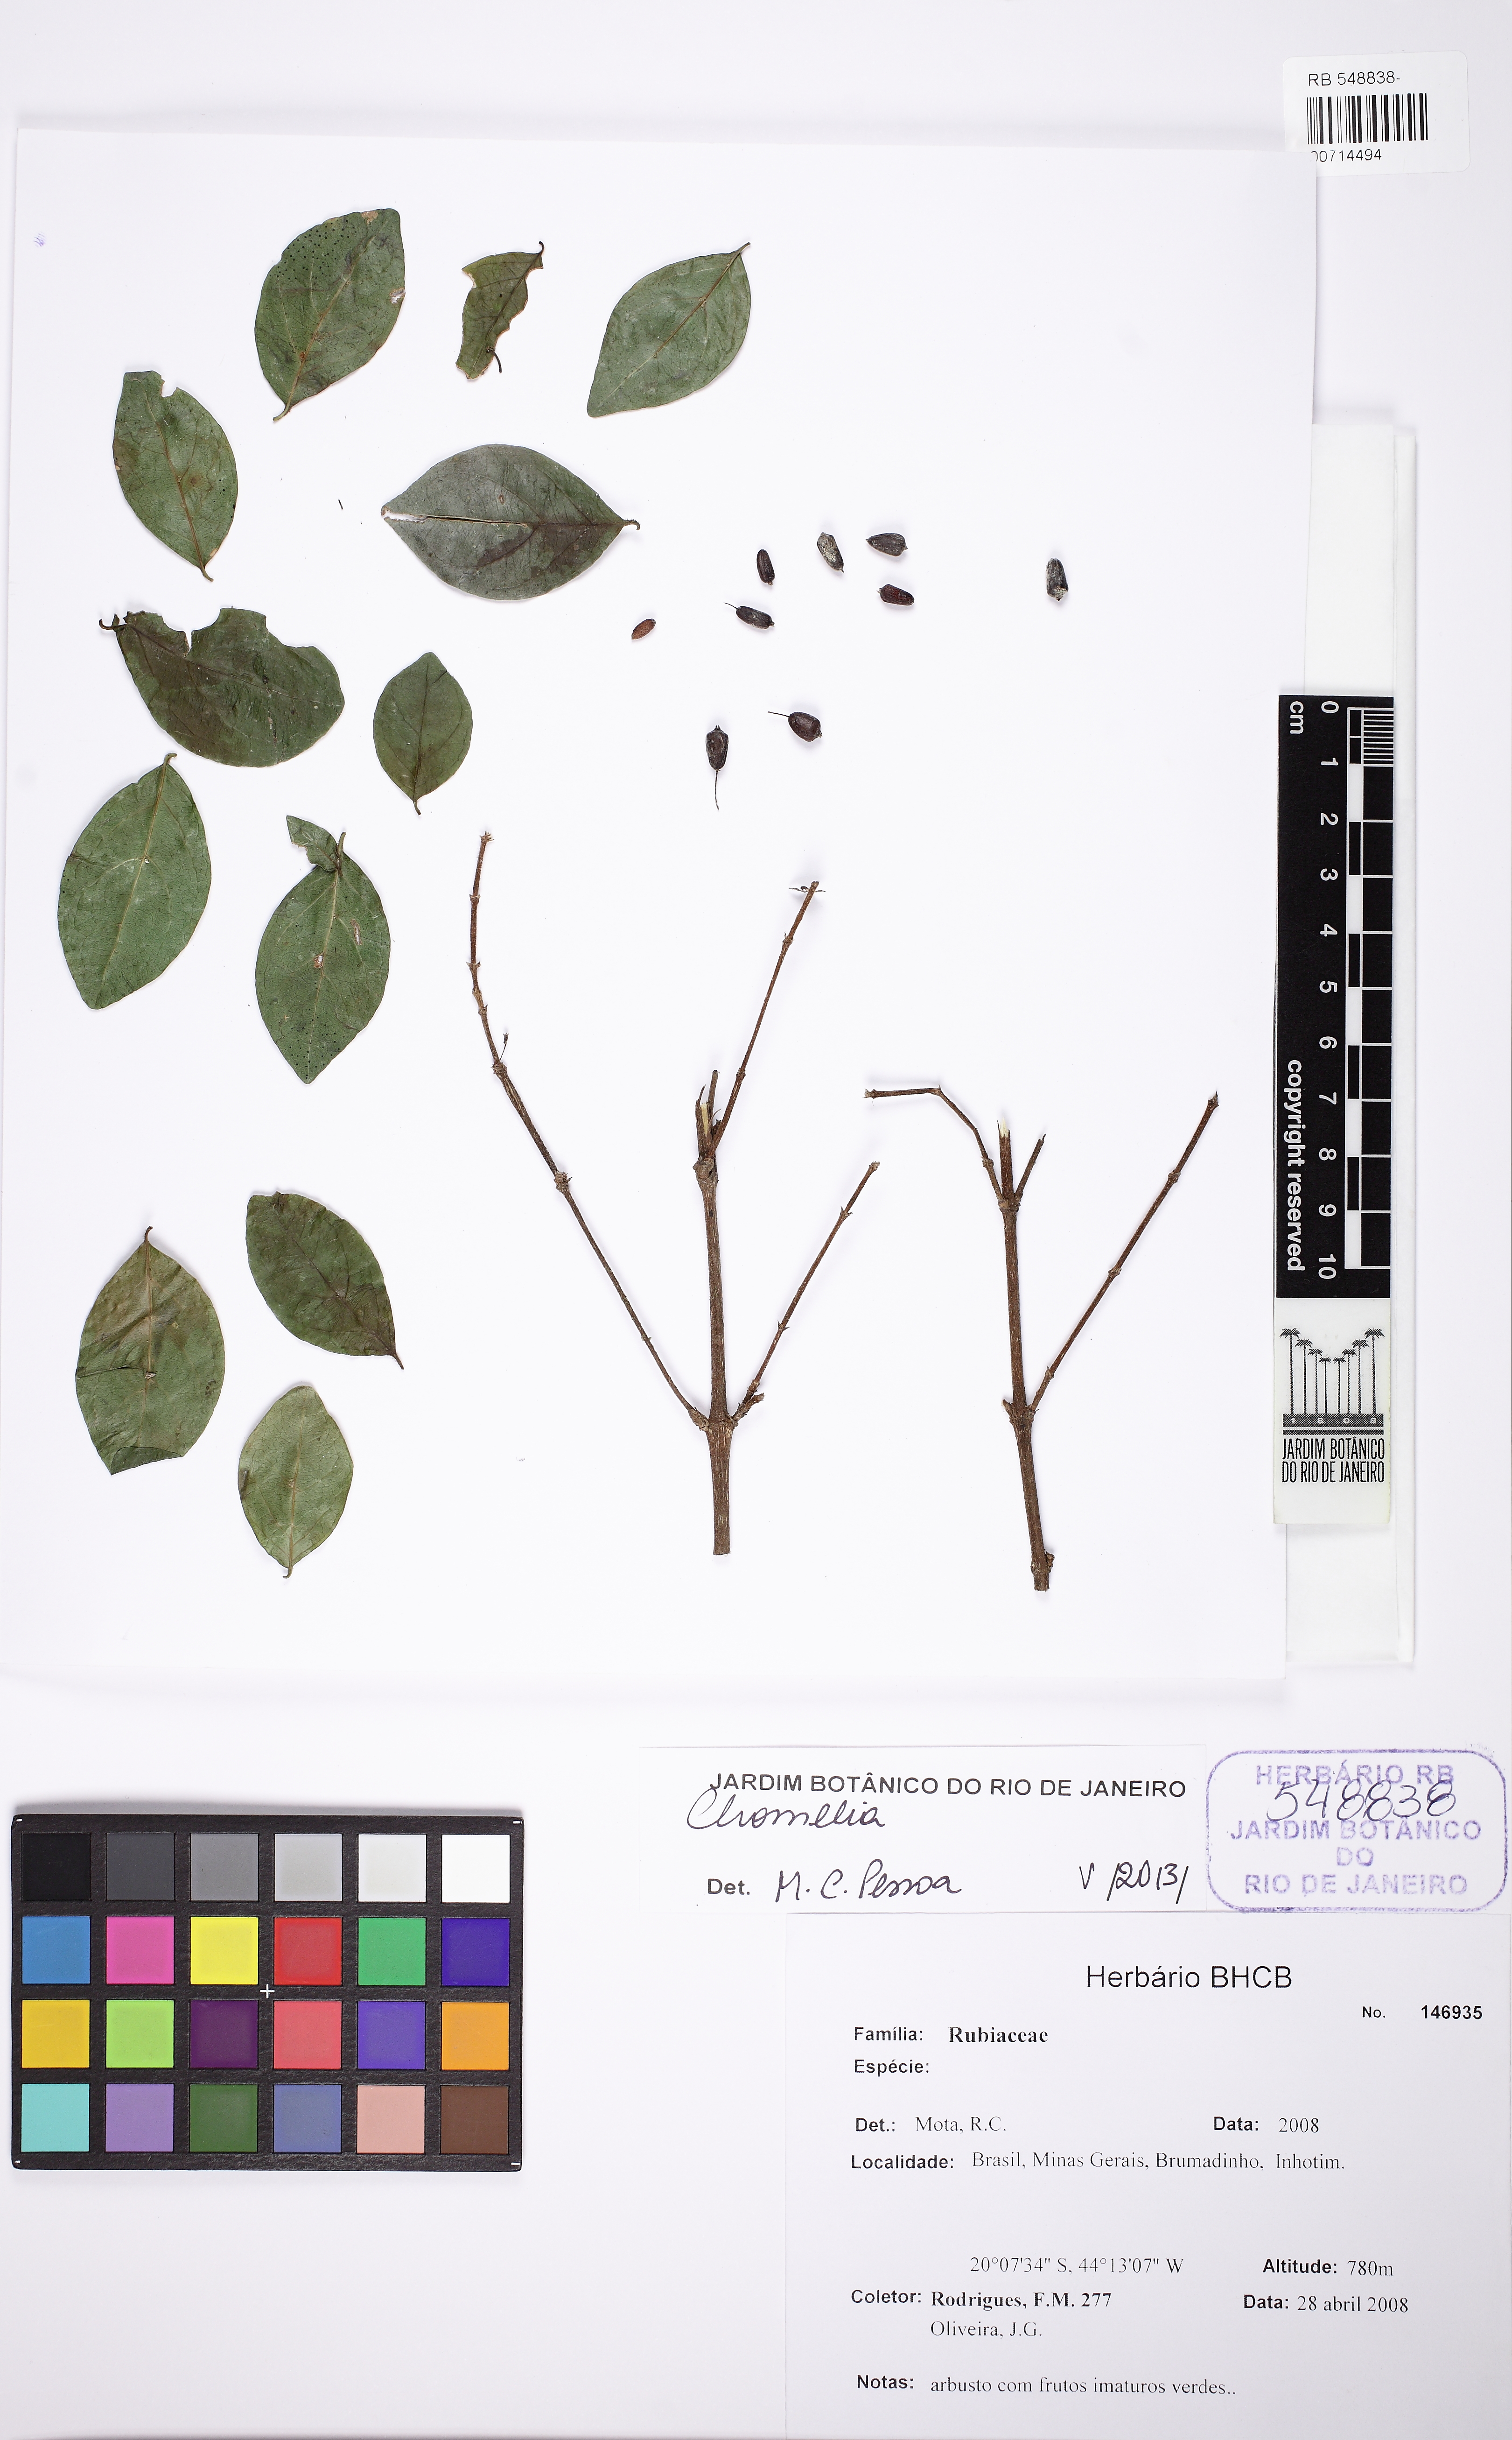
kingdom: Plantae
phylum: Tracheophyta
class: Magnoliopsida
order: Gentianales
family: Rubiaceae
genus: Chomelia
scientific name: Chomelia obtusa
